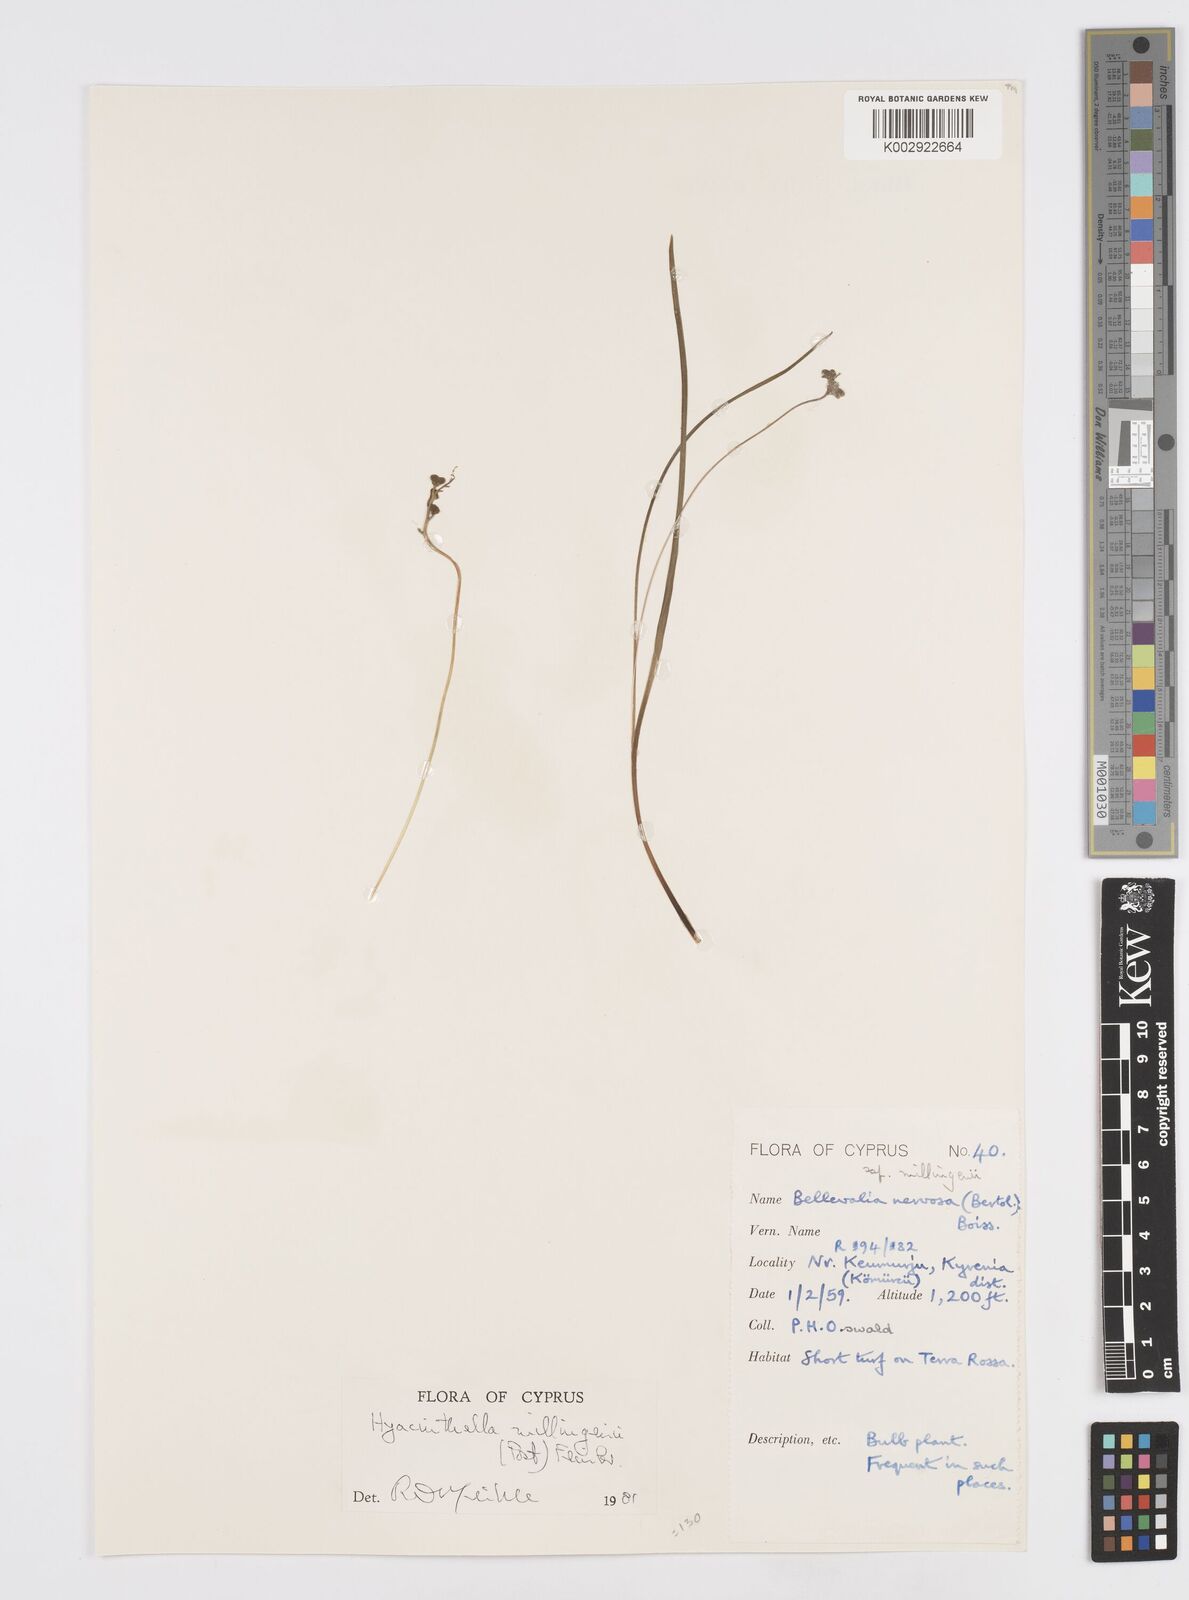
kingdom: Plantae
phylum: Tracheophyta
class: Liliopsida
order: Asparagales
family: Asparagaceae
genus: Hyacinthella
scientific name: Hyacinthella millingenii
